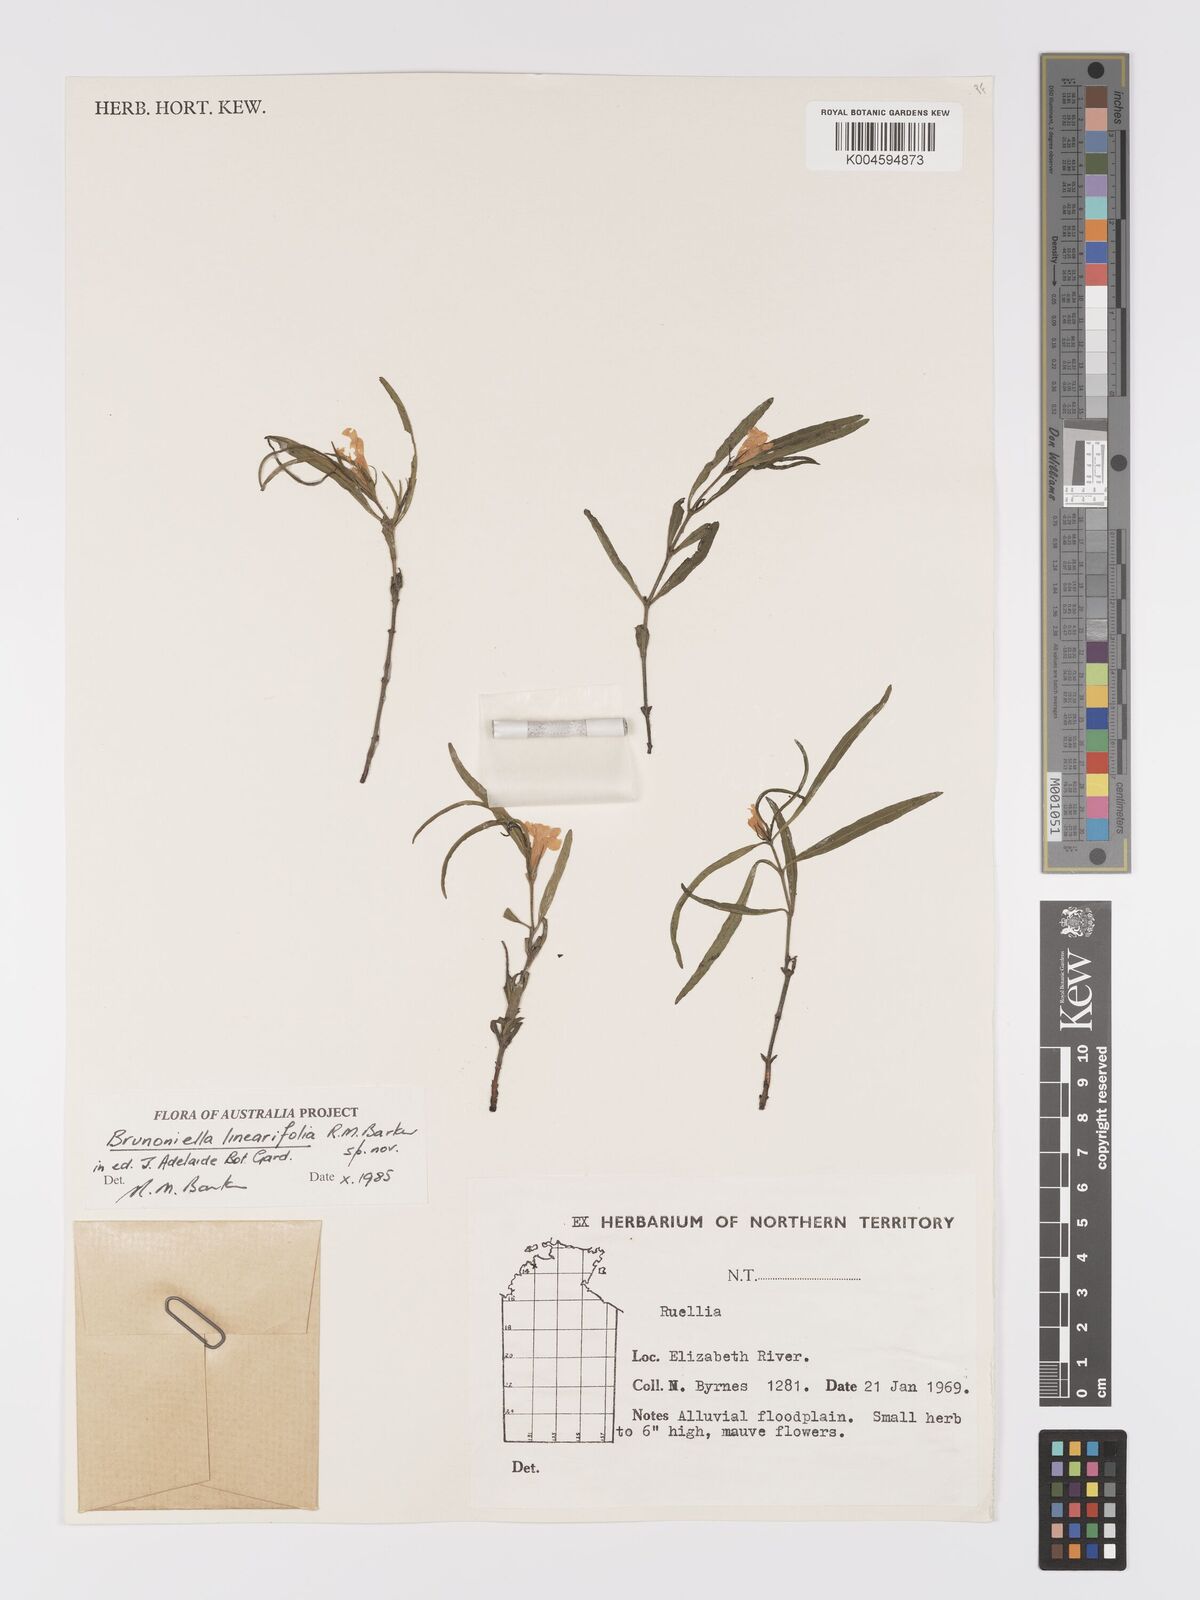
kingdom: Plantae
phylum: Tracheophyta
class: Magnoliopsida
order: Lamiales
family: Acanthaceae
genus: Brunoniella
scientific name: Brunoniella linearifolia
